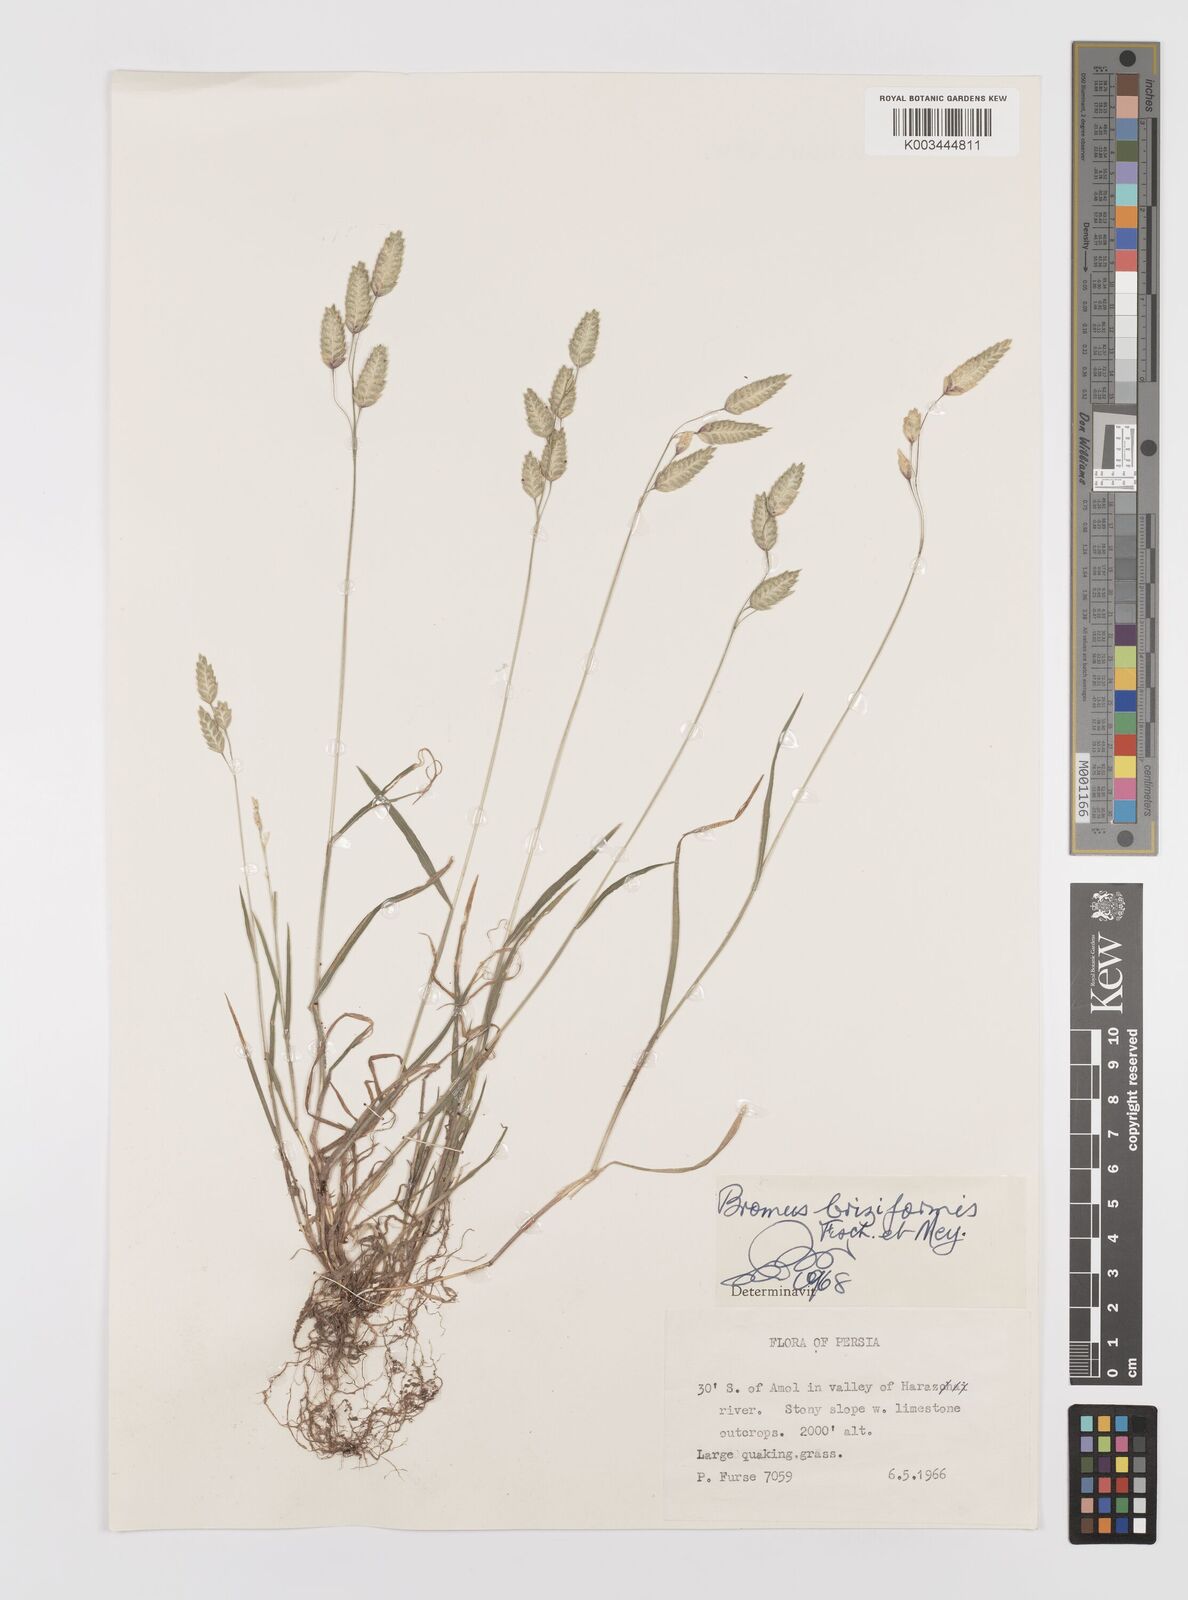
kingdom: Plantae
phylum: Tracheophyta
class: Liliopsida
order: Poales
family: Poaceae
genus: Bromus
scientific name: Bromus briziformis
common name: Rattlesnake brome
